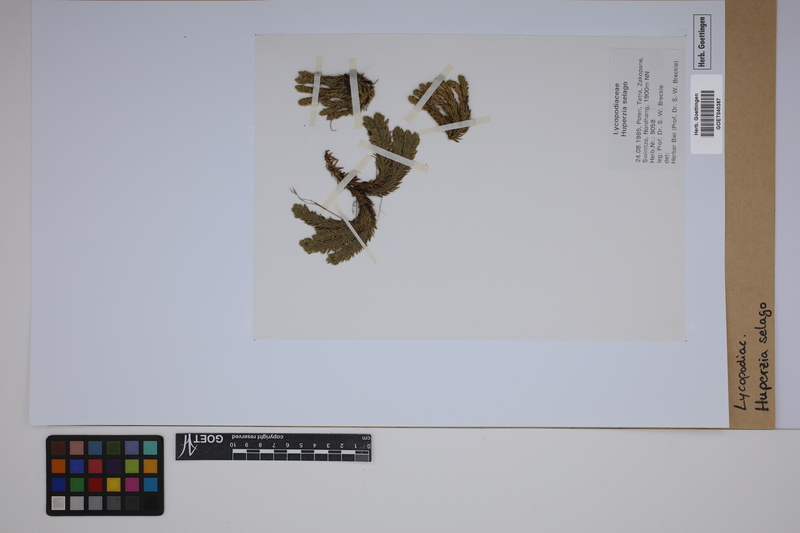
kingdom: Plantae
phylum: Tracheophyta
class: Lycopodiopsida
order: Lycopodiales
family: Lycopodiaceae
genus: Huperzia
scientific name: Huperzia selago
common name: Northern firmoss
